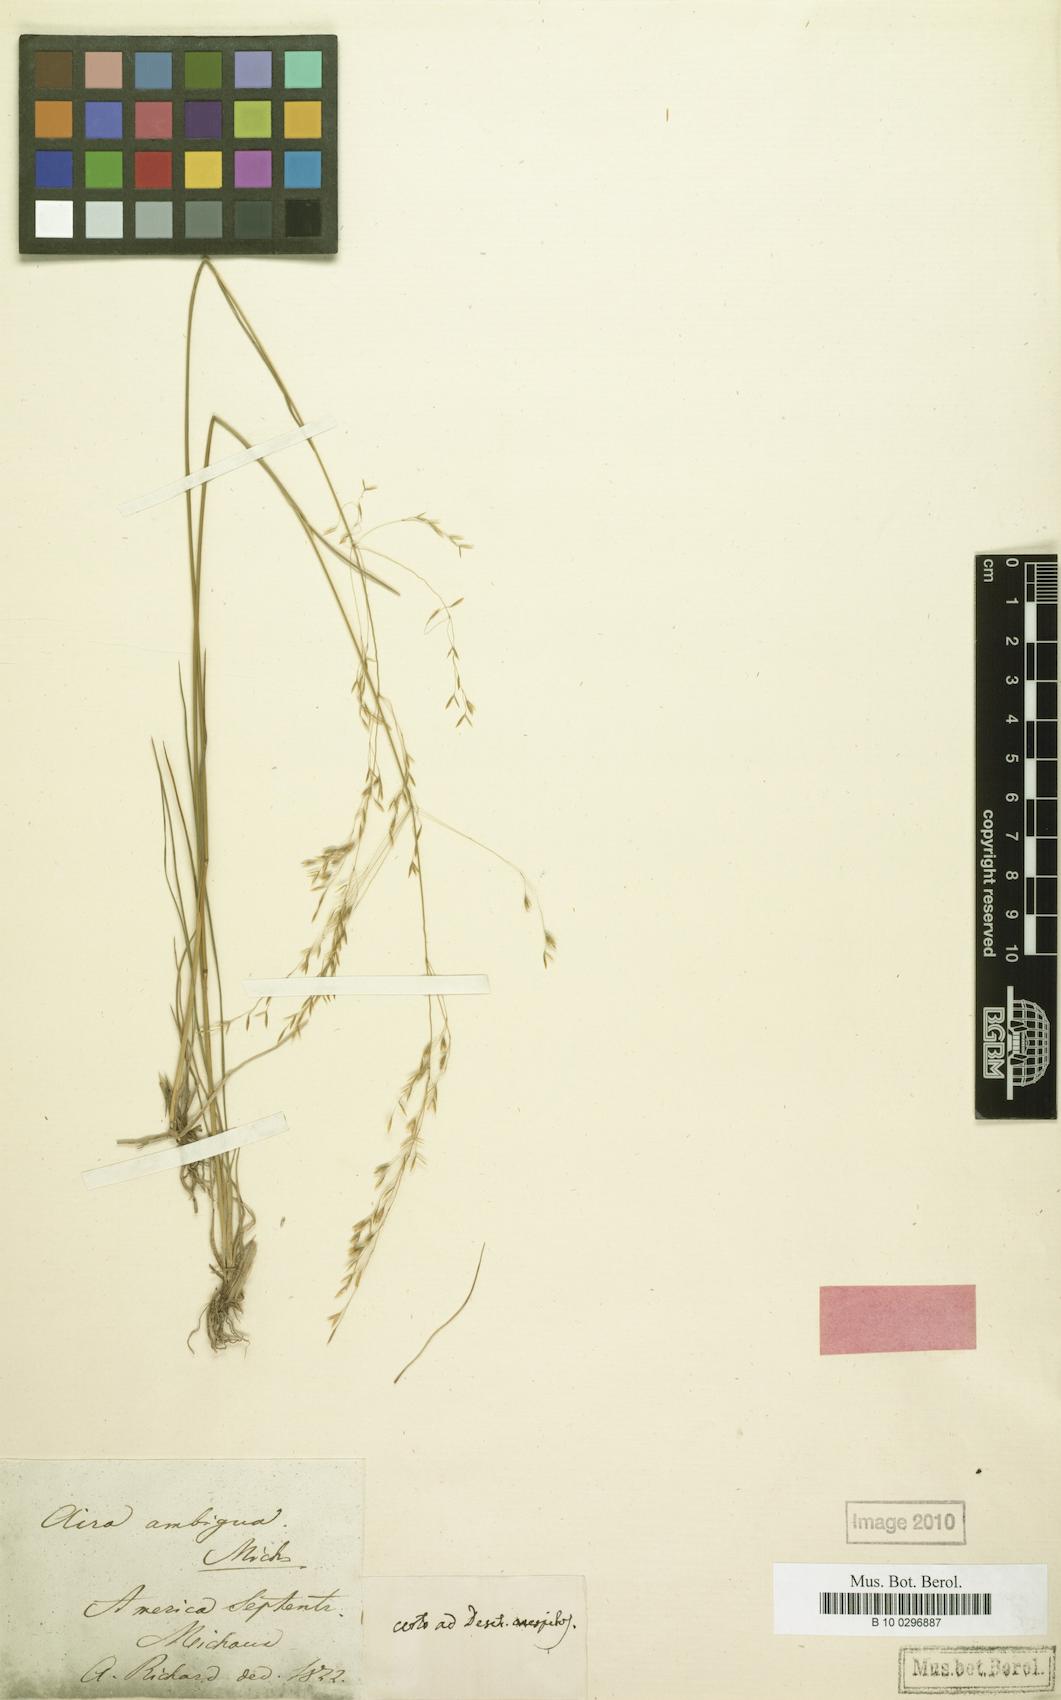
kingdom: Plantae
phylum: Tracheophyta
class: Liliopsida
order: Poales
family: Poaceae
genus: Deschampsia
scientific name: Deschampsia cespitosa
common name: Tufted hair-grass
